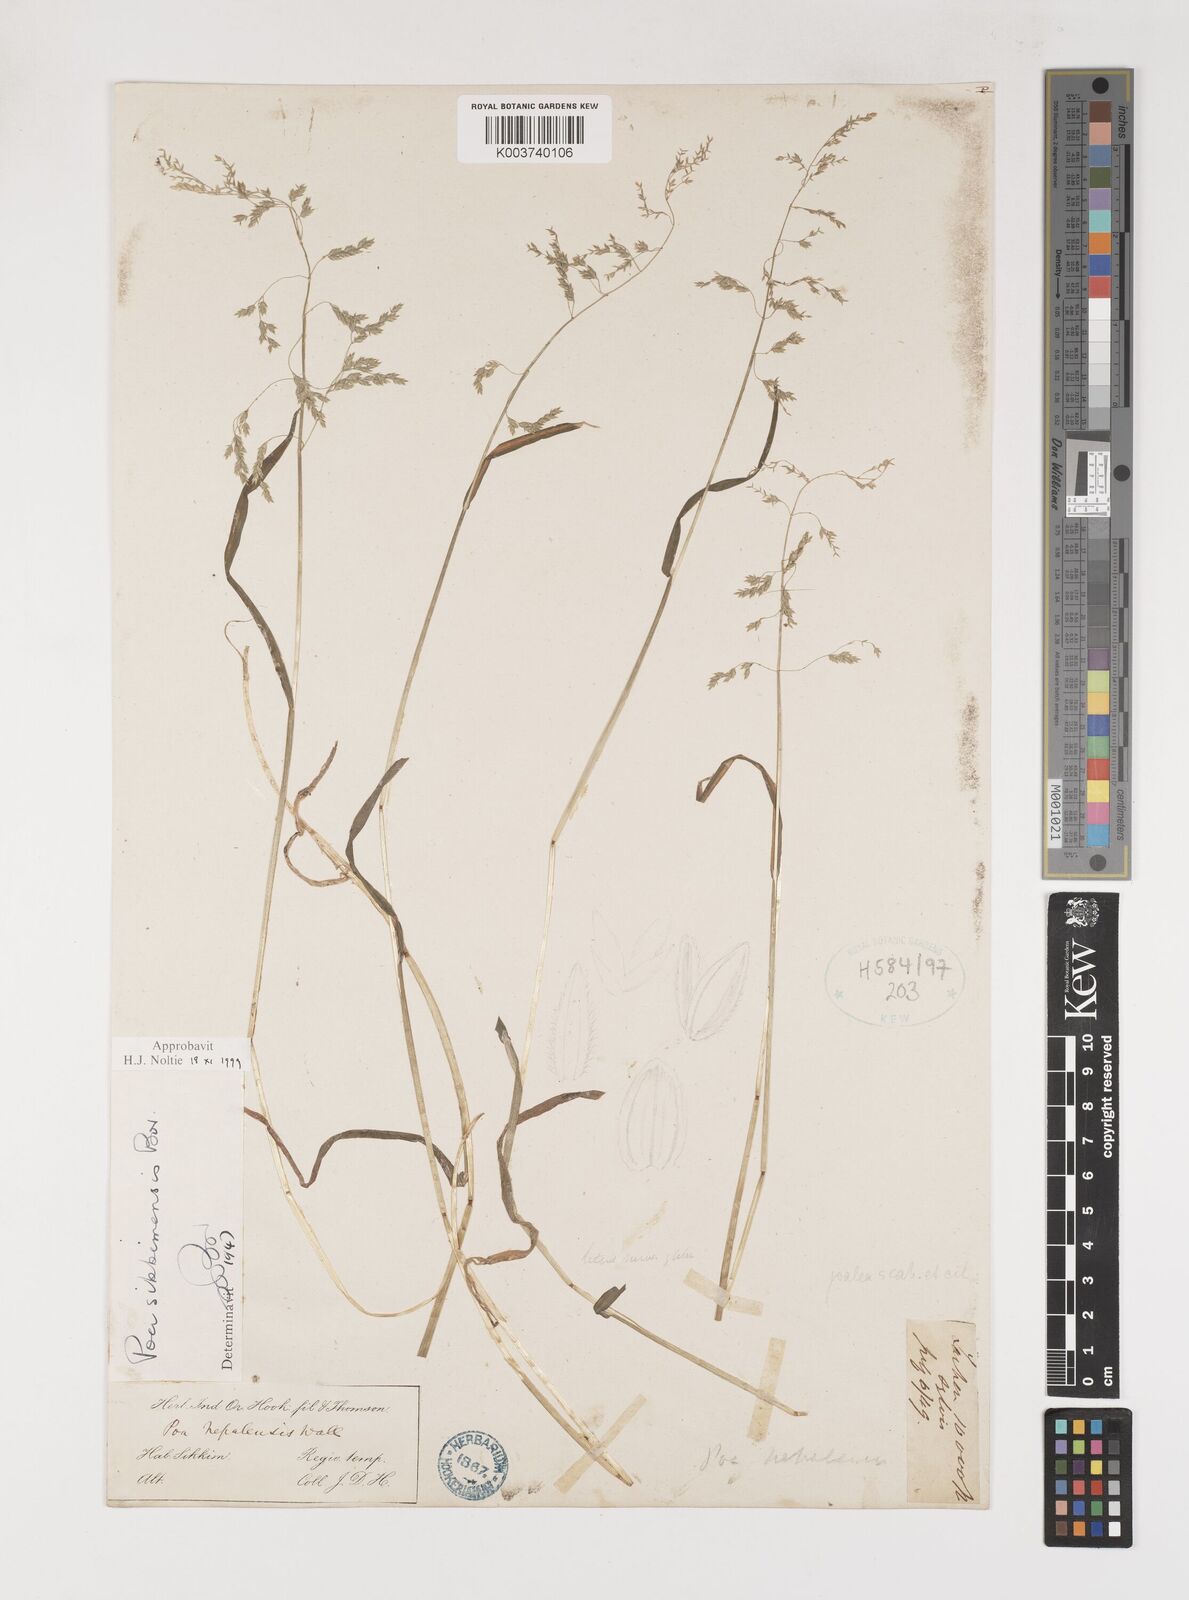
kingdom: Plantae
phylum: Tracheophyta
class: Liliopsida
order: Poales
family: Poaceae
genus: Poa
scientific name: Poa sikkimensis
